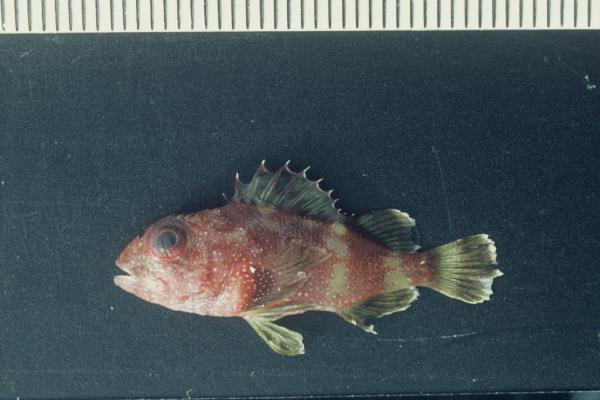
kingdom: Animalia
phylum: Chordata
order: Scorpaeniformes
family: Scorpaenidae
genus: Sebastapistes
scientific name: Sebastapistes cyanostigma
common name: Yellowspotted scorpionfish
